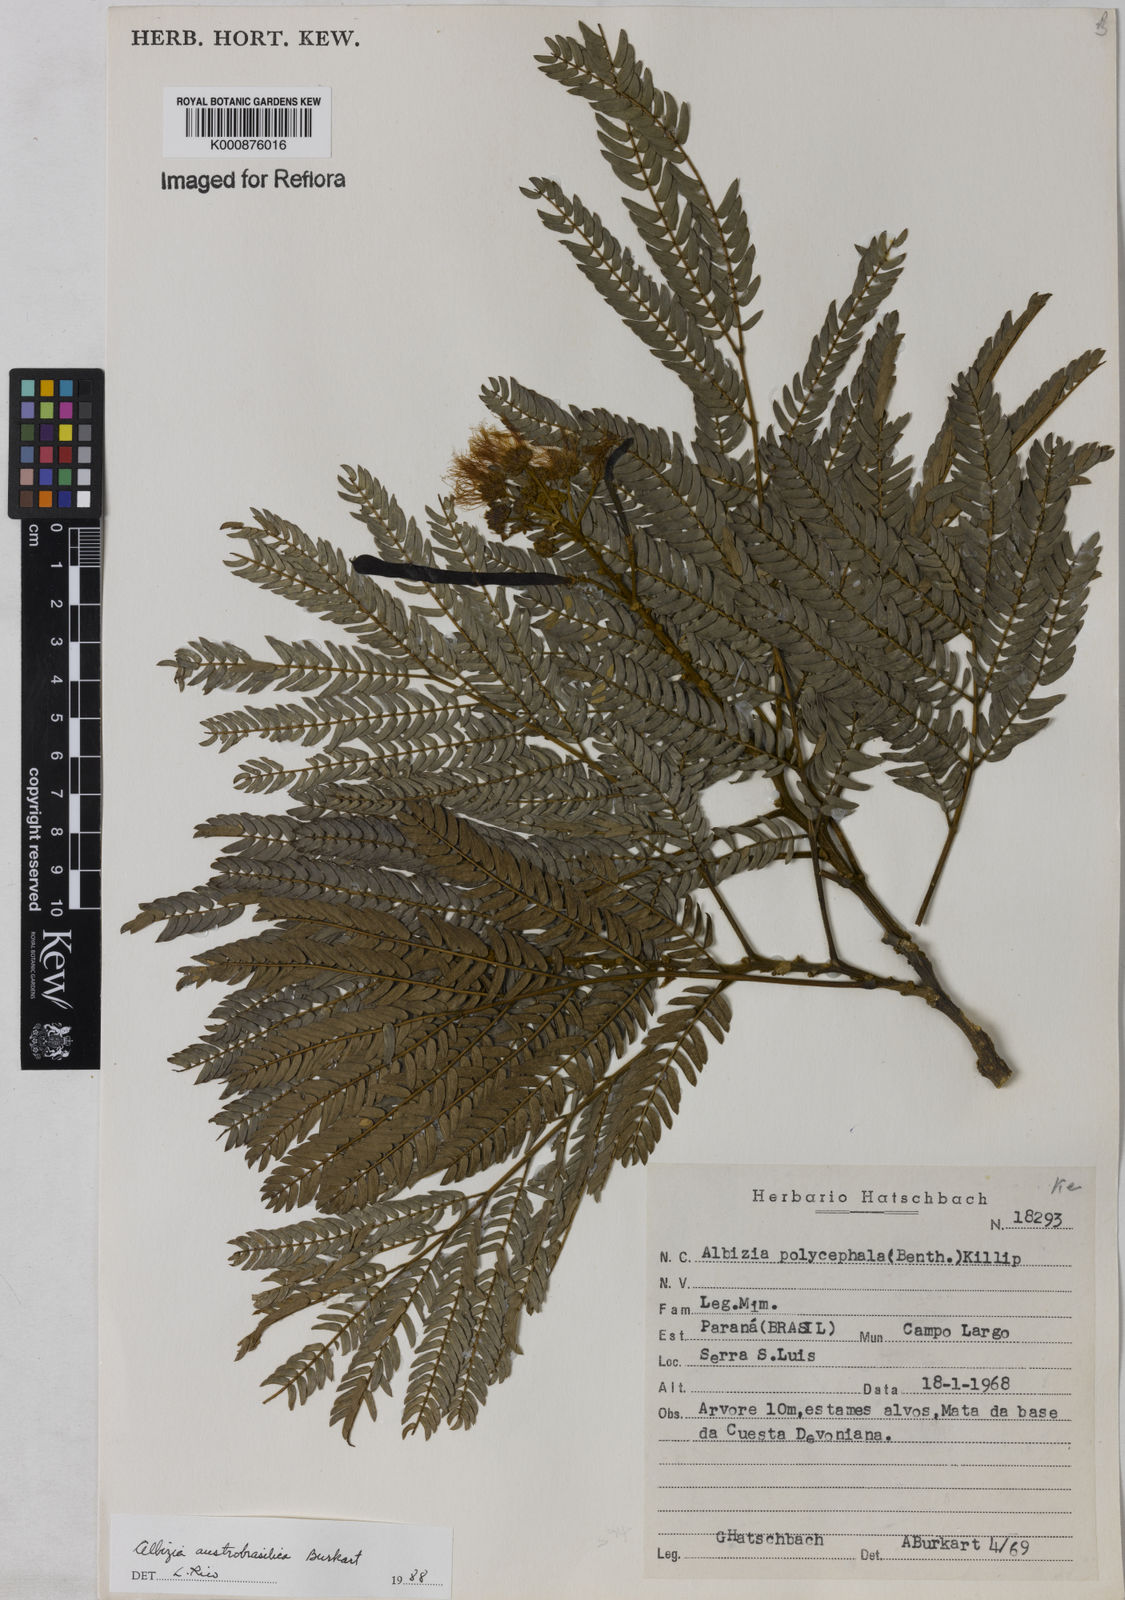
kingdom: Plantae
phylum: Tracheophyta
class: Magnoliopsida
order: Fabales
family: Fabaceae
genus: Albizia
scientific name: Albizia edwallii
